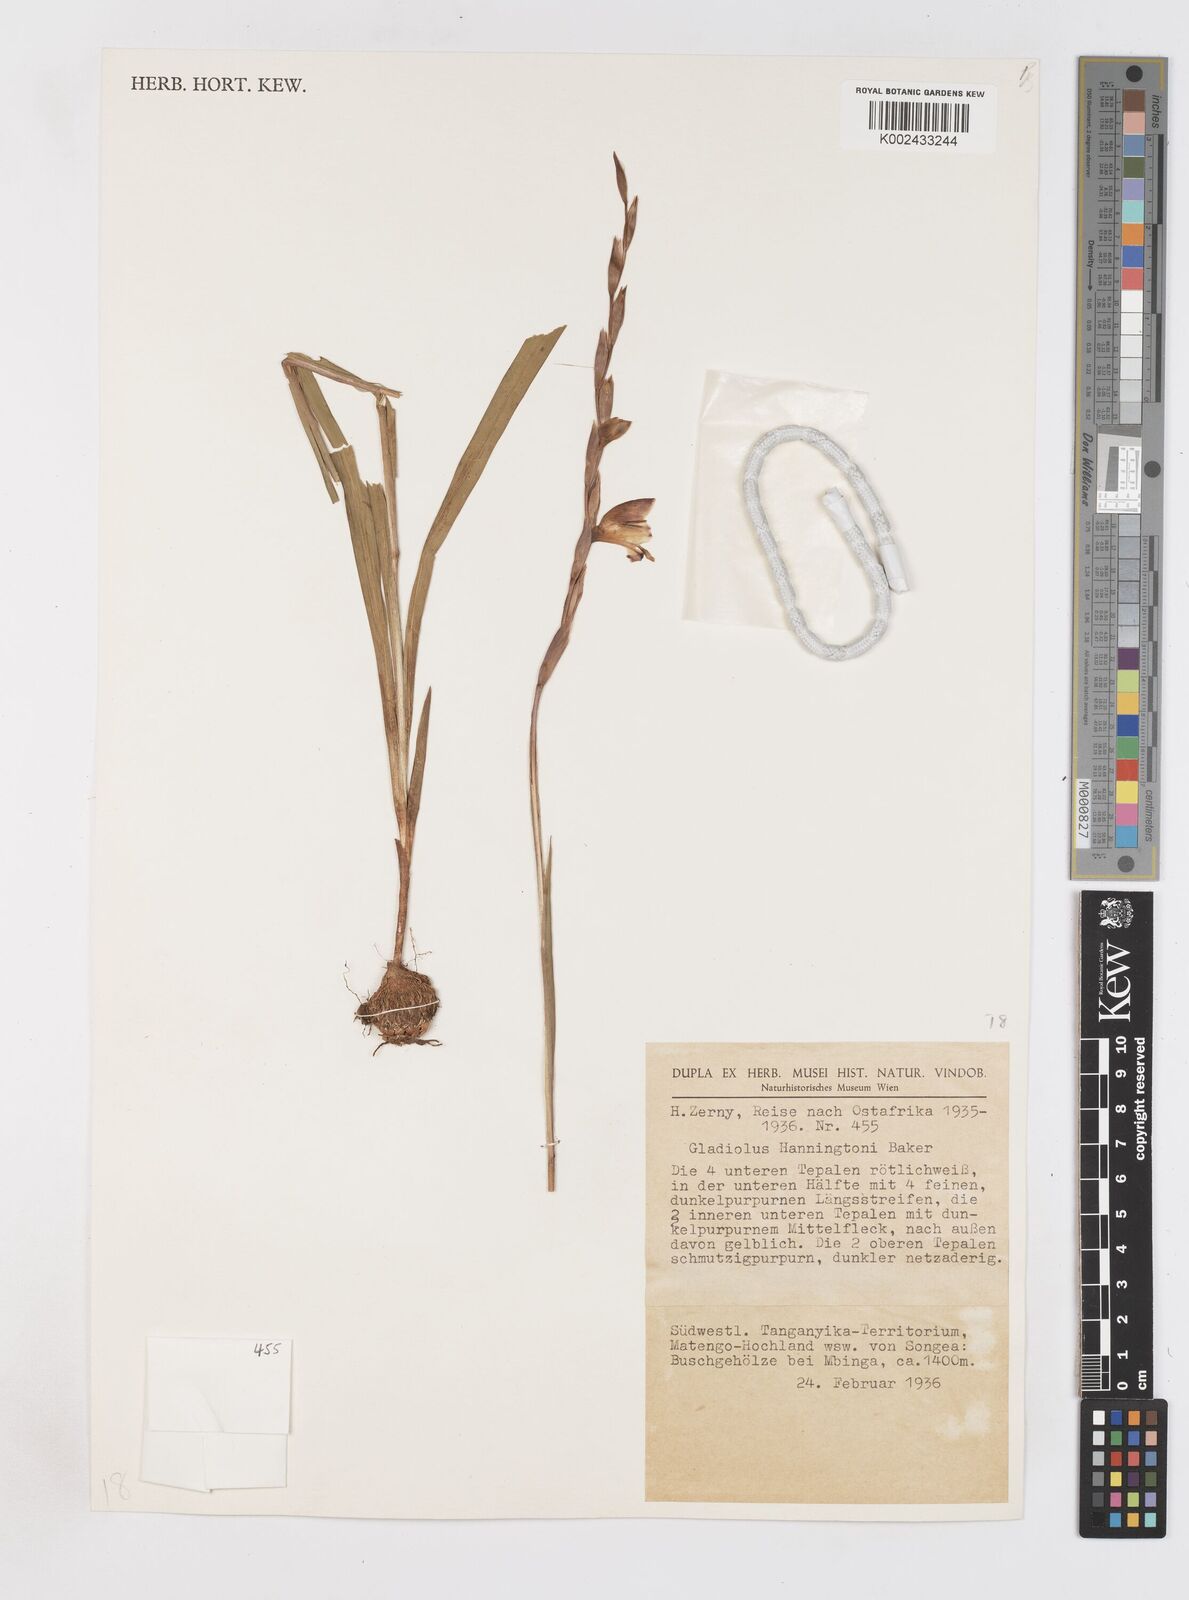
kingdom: Plantae
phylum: Tracheophyta
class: Liliopsida
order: Asparagales
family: Iridaceae
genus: Gladiolus
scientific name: Gladiolus gregarius
